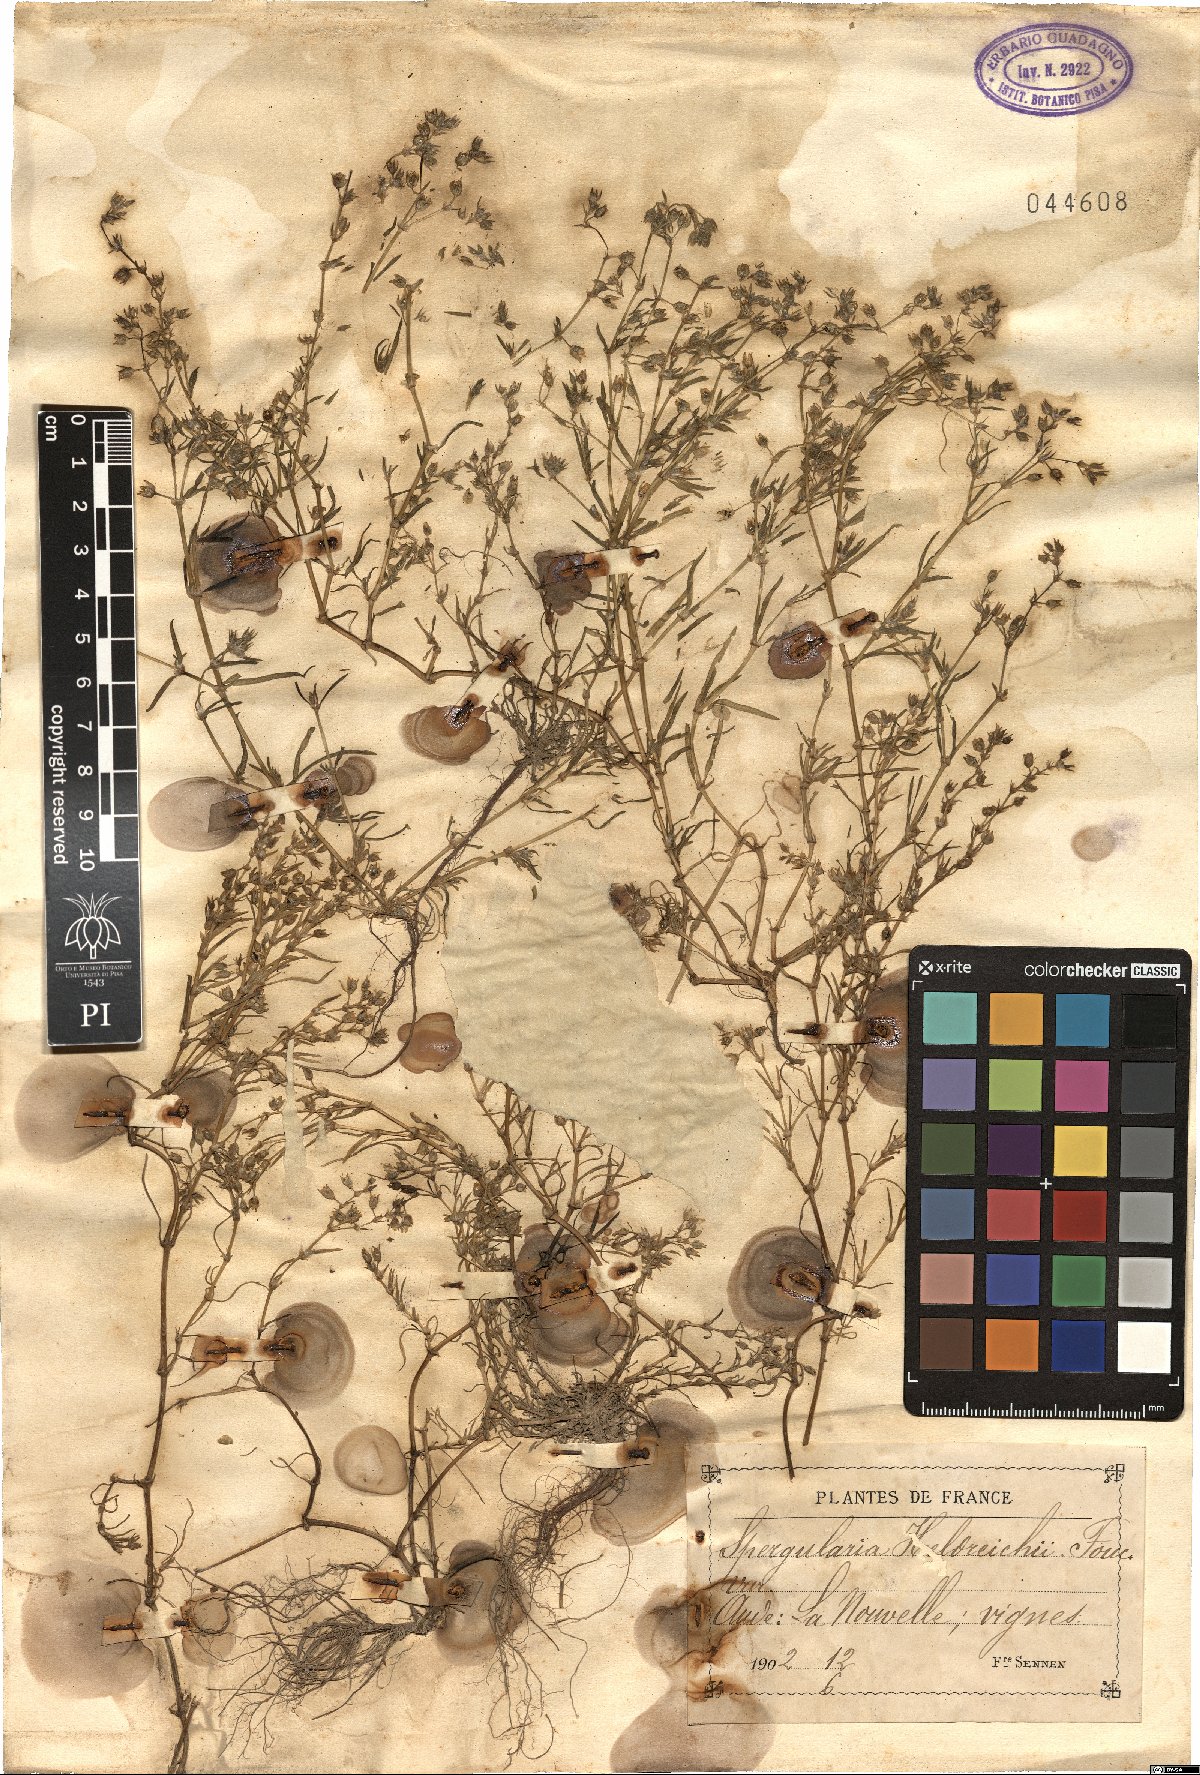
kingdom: Plantae
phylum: Tracheophyta
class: Magnoliopsida
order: Caryophyllales
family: Caryophyllaceae
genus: Spergularia
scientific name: Spergularia heldreichii
